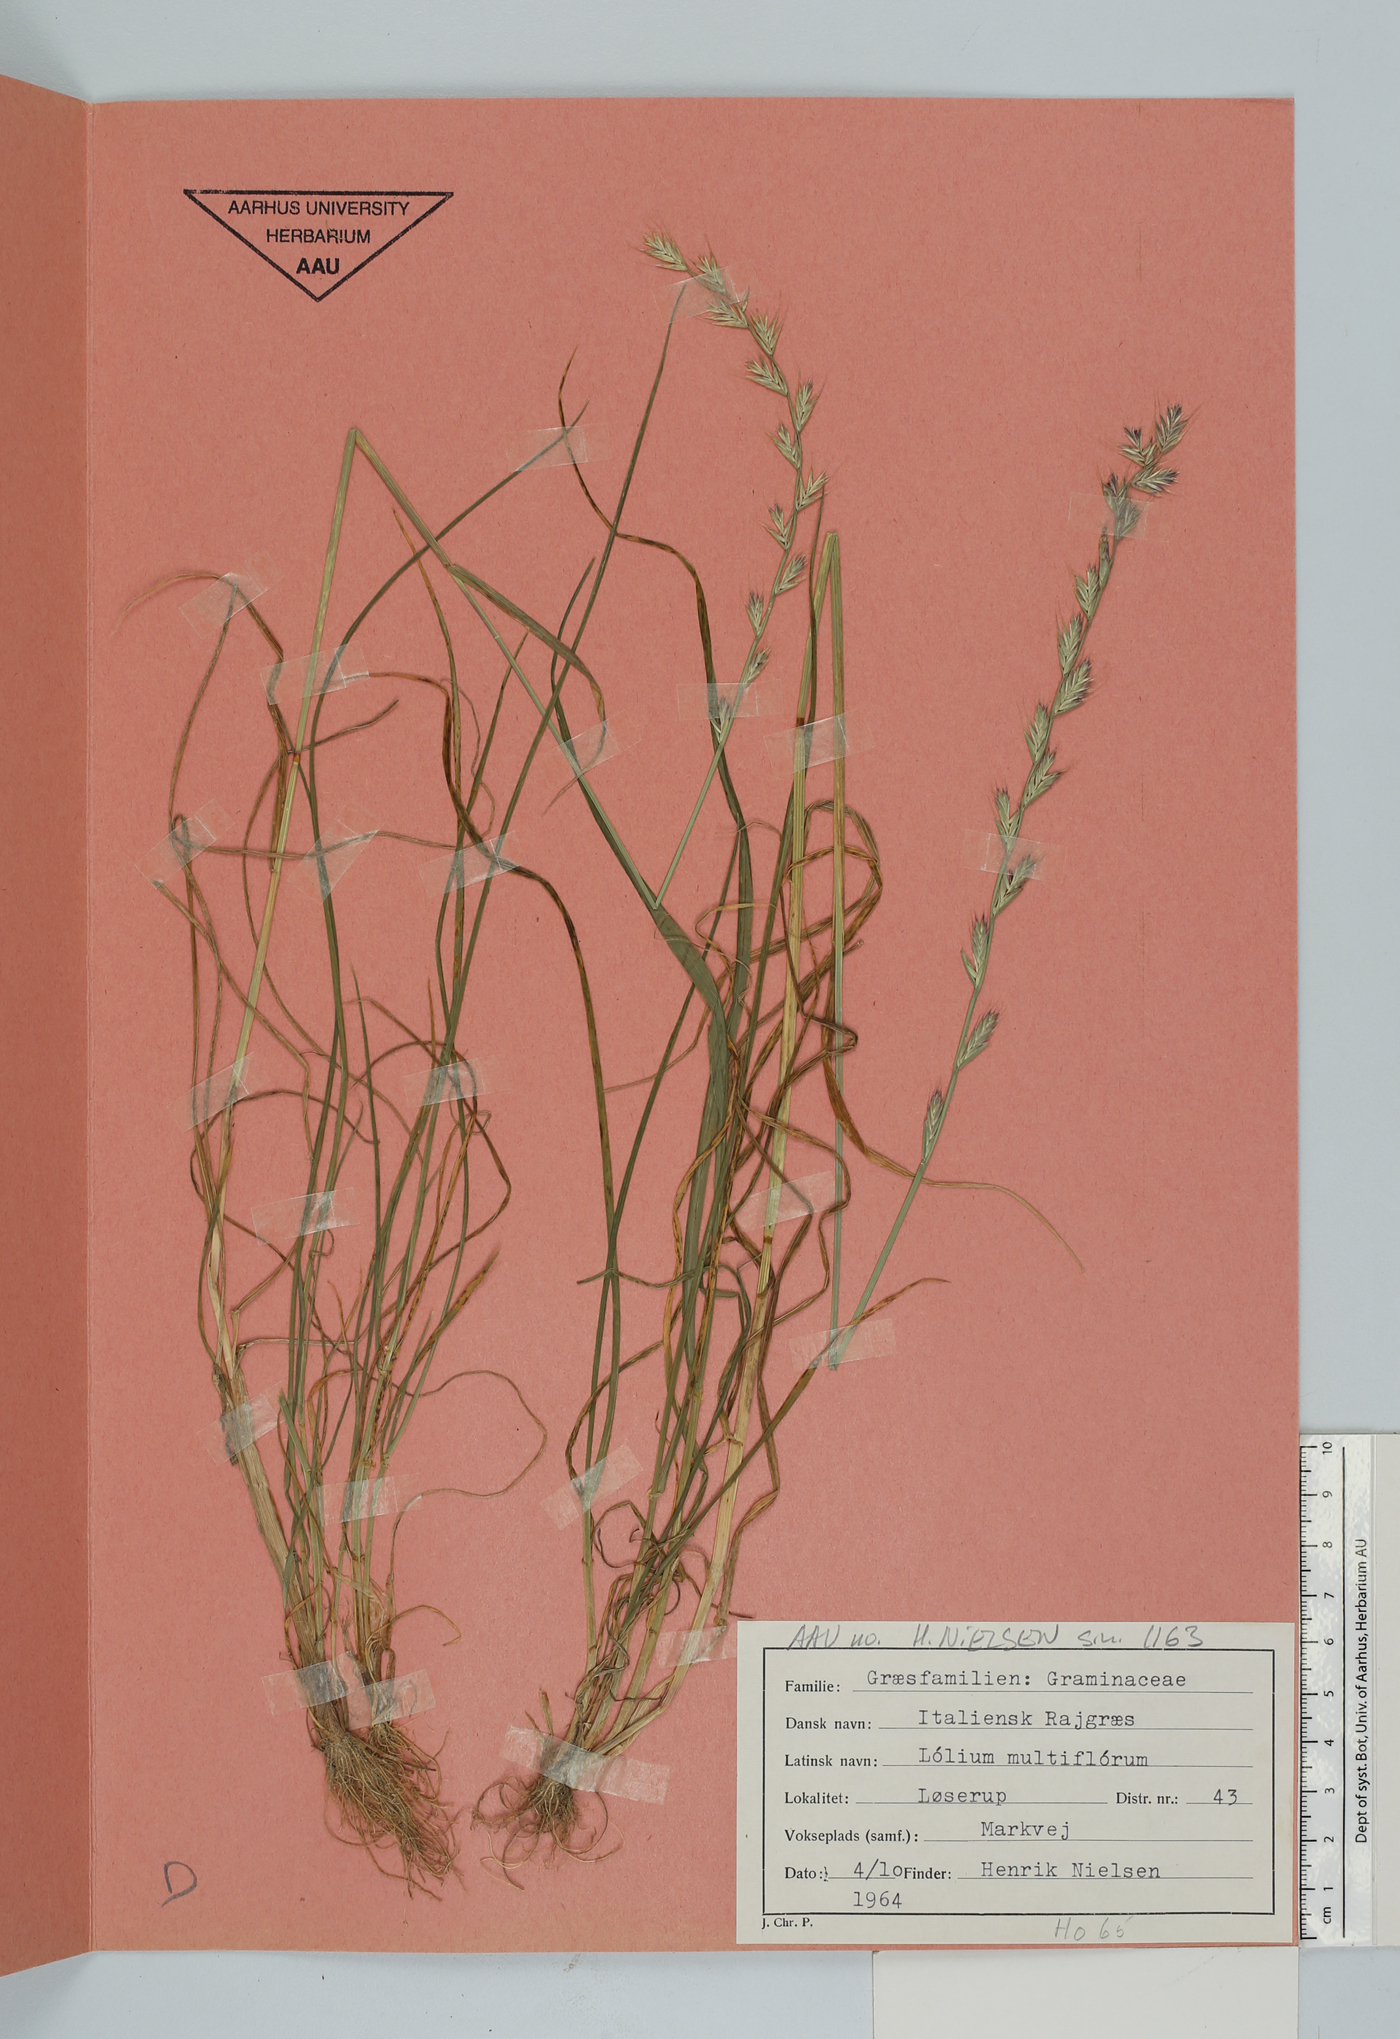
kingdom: Plantae
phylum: Tracheophyta
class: Liliopsida
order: Poales
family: Poaceae
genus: Lolium
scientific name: Lolium multiflorum
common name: Annual ryegrass
